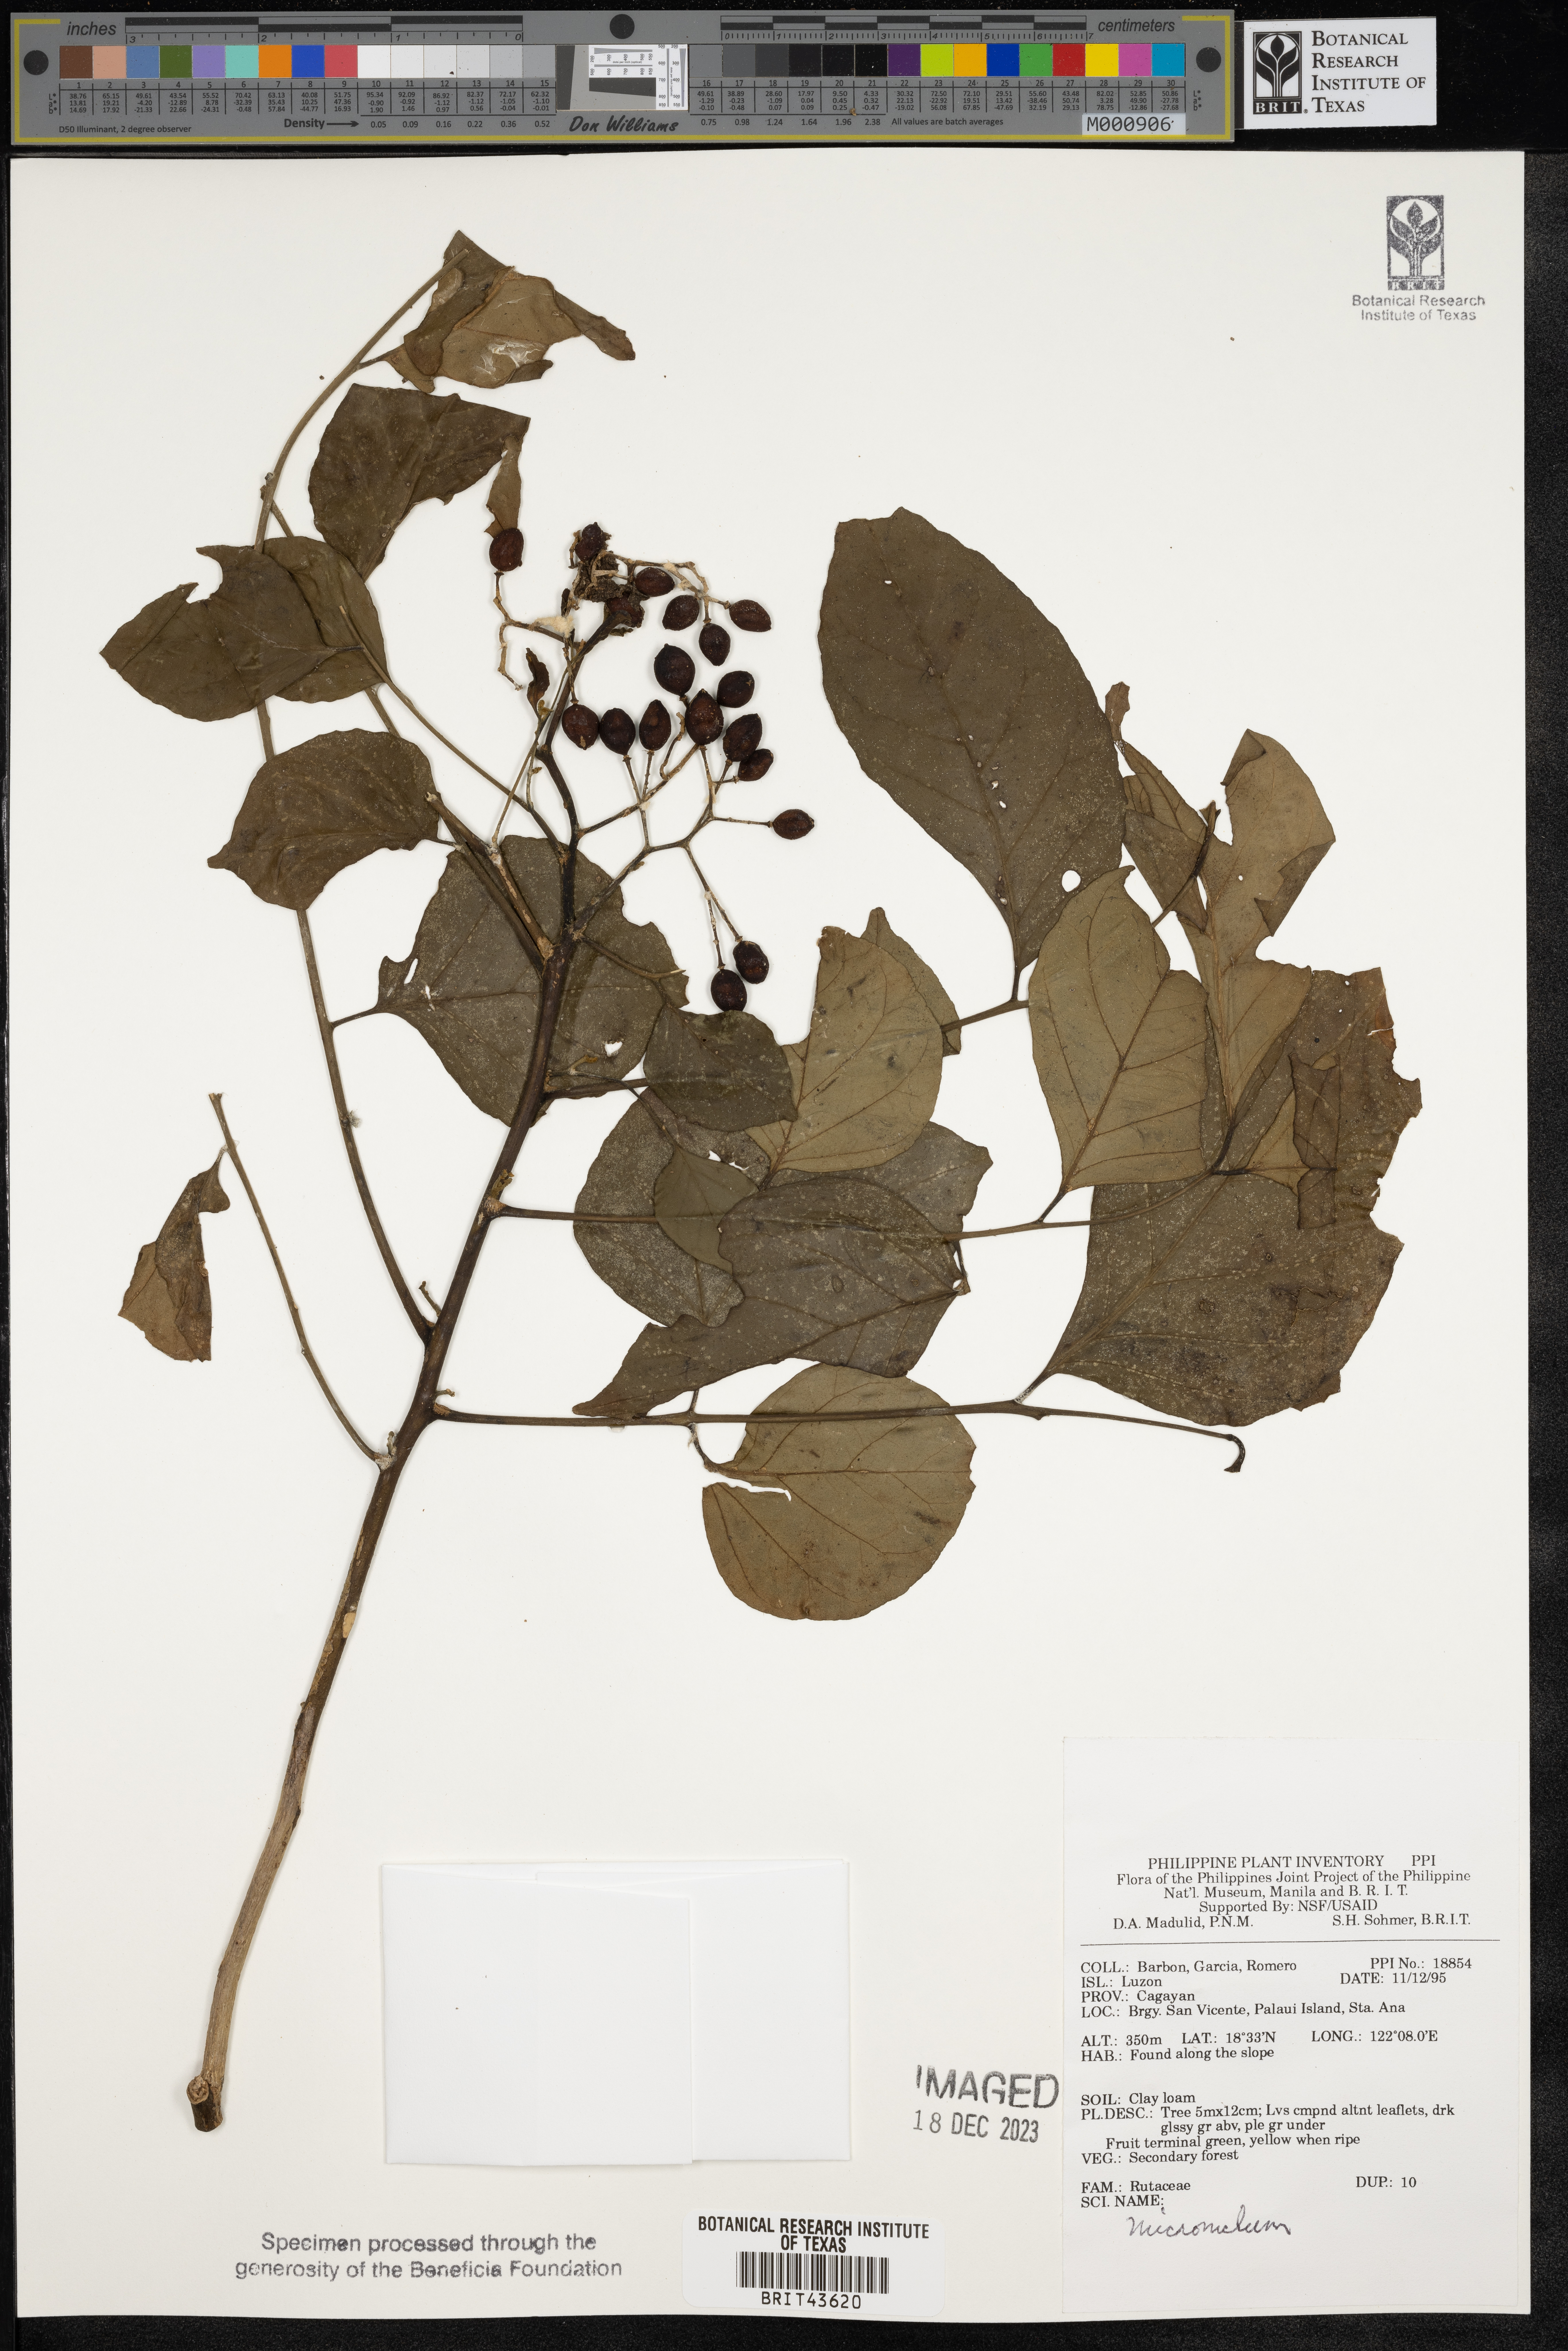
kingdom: Plantae
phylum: Tracheophyta
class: Magnoliopsida
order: Sapindales
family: Rutaceae
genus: Micromelum
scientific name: Micromelum
